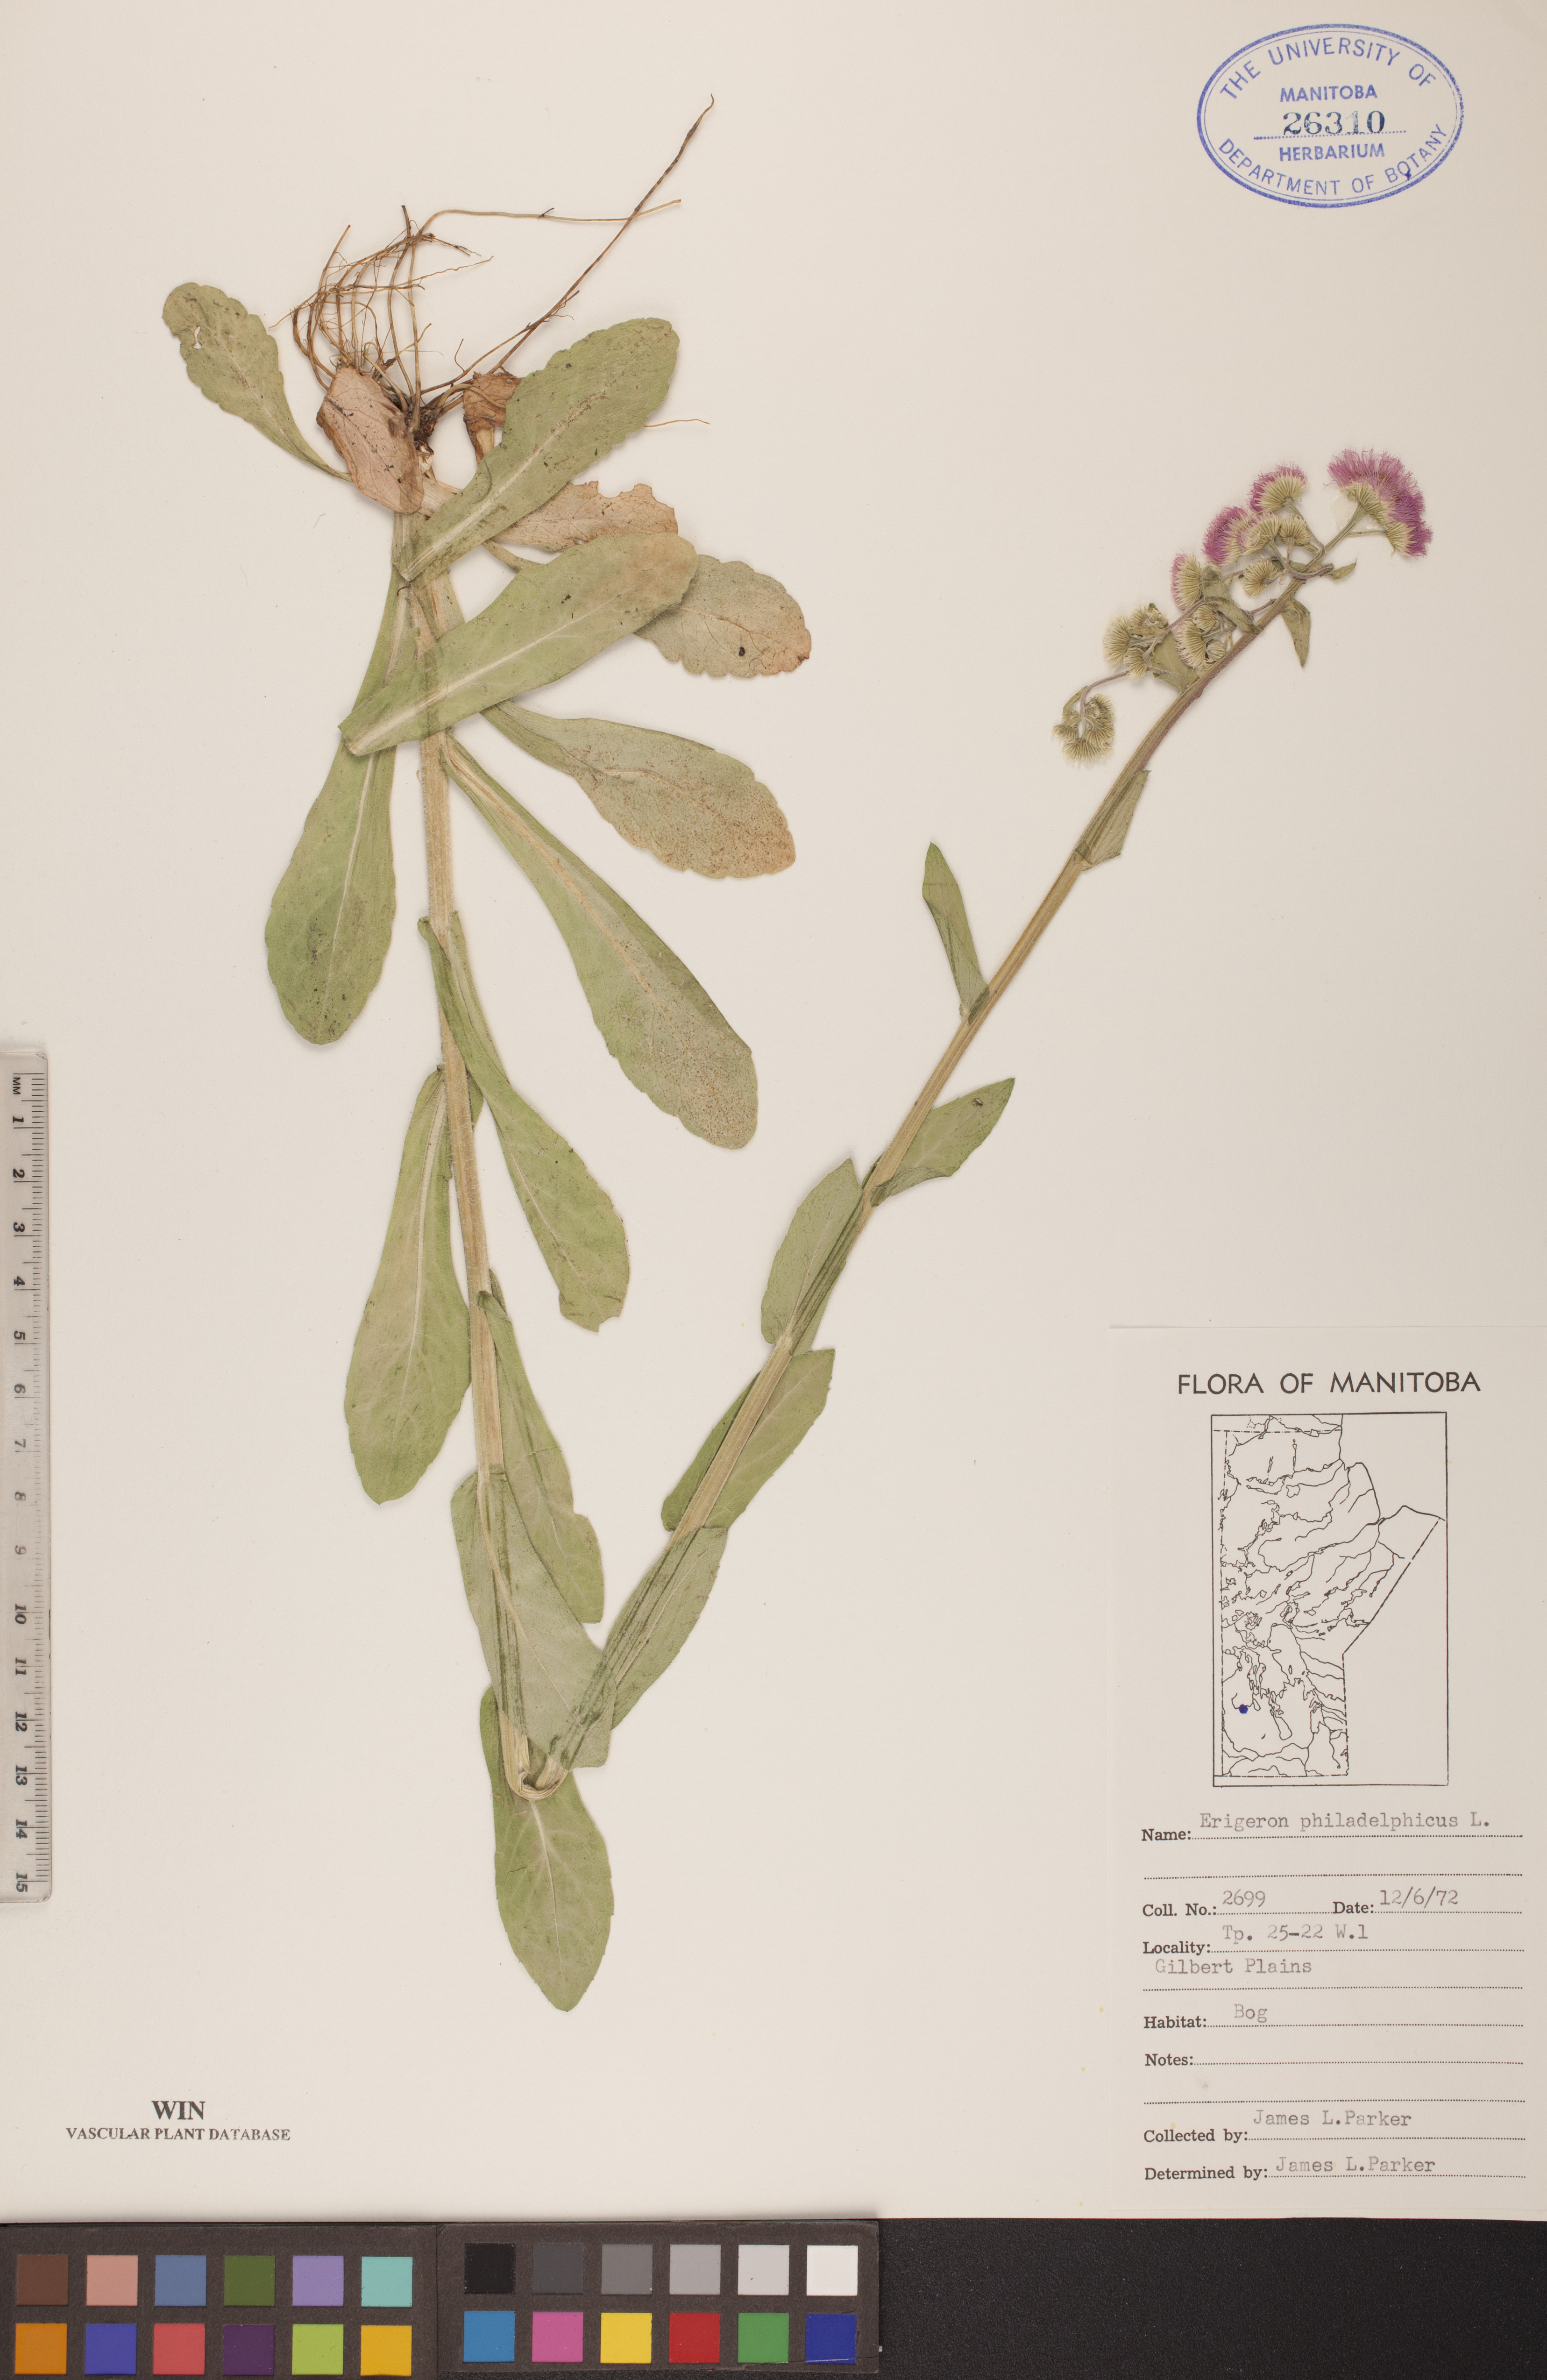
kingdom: Plantae
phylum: Tracheophyta
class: Magnoliopsida
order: Asterales
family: Asteraceae
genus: Erigeron
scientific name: Erigeron philadelphicus
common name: Robin's-plantain
